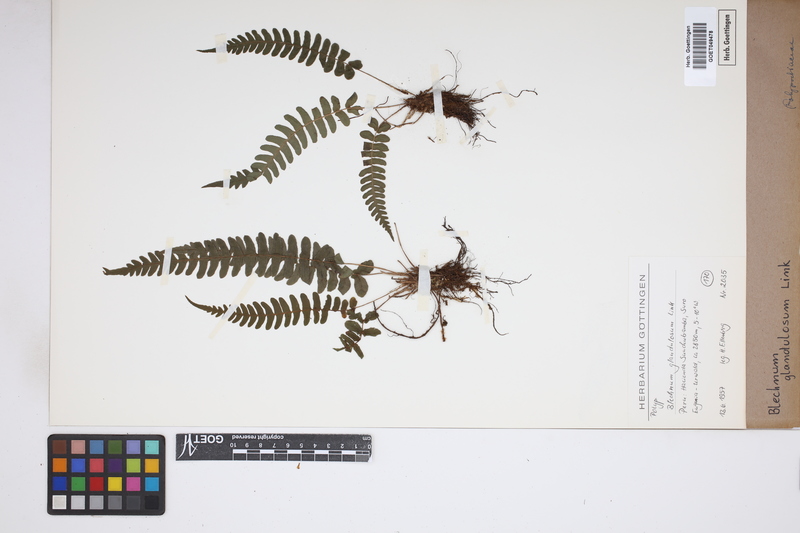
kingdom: Plantae
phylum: Tracheophyta
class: Polypodiopsida
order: Polypodiales
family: Blechnaceae
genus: Blechnum
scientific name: Blechnum appendiculatum
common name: Palm fern
